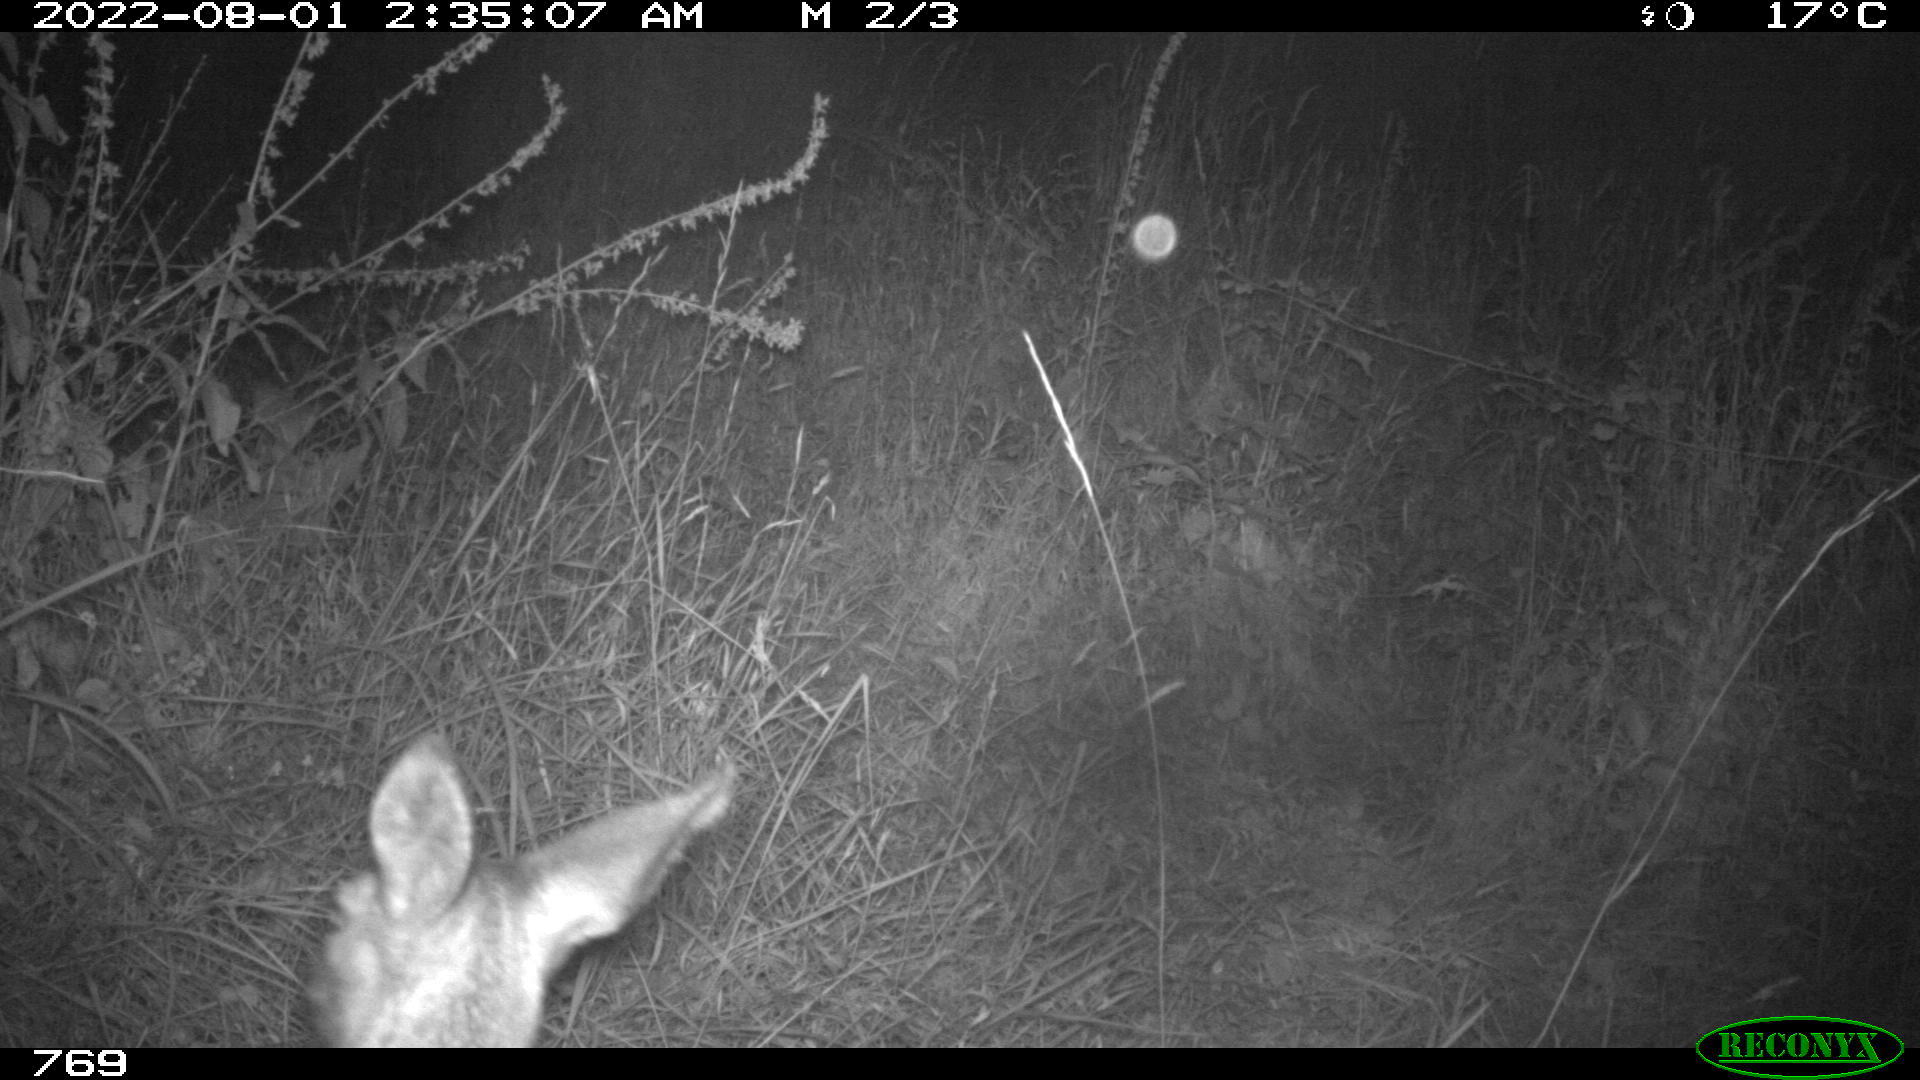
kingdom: Animalia
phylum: Chordata
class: Mammalia
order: Artiodactyla
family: Cervidae
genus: Capreolus
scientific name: Capreolus capreolus
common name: Western roe deer
